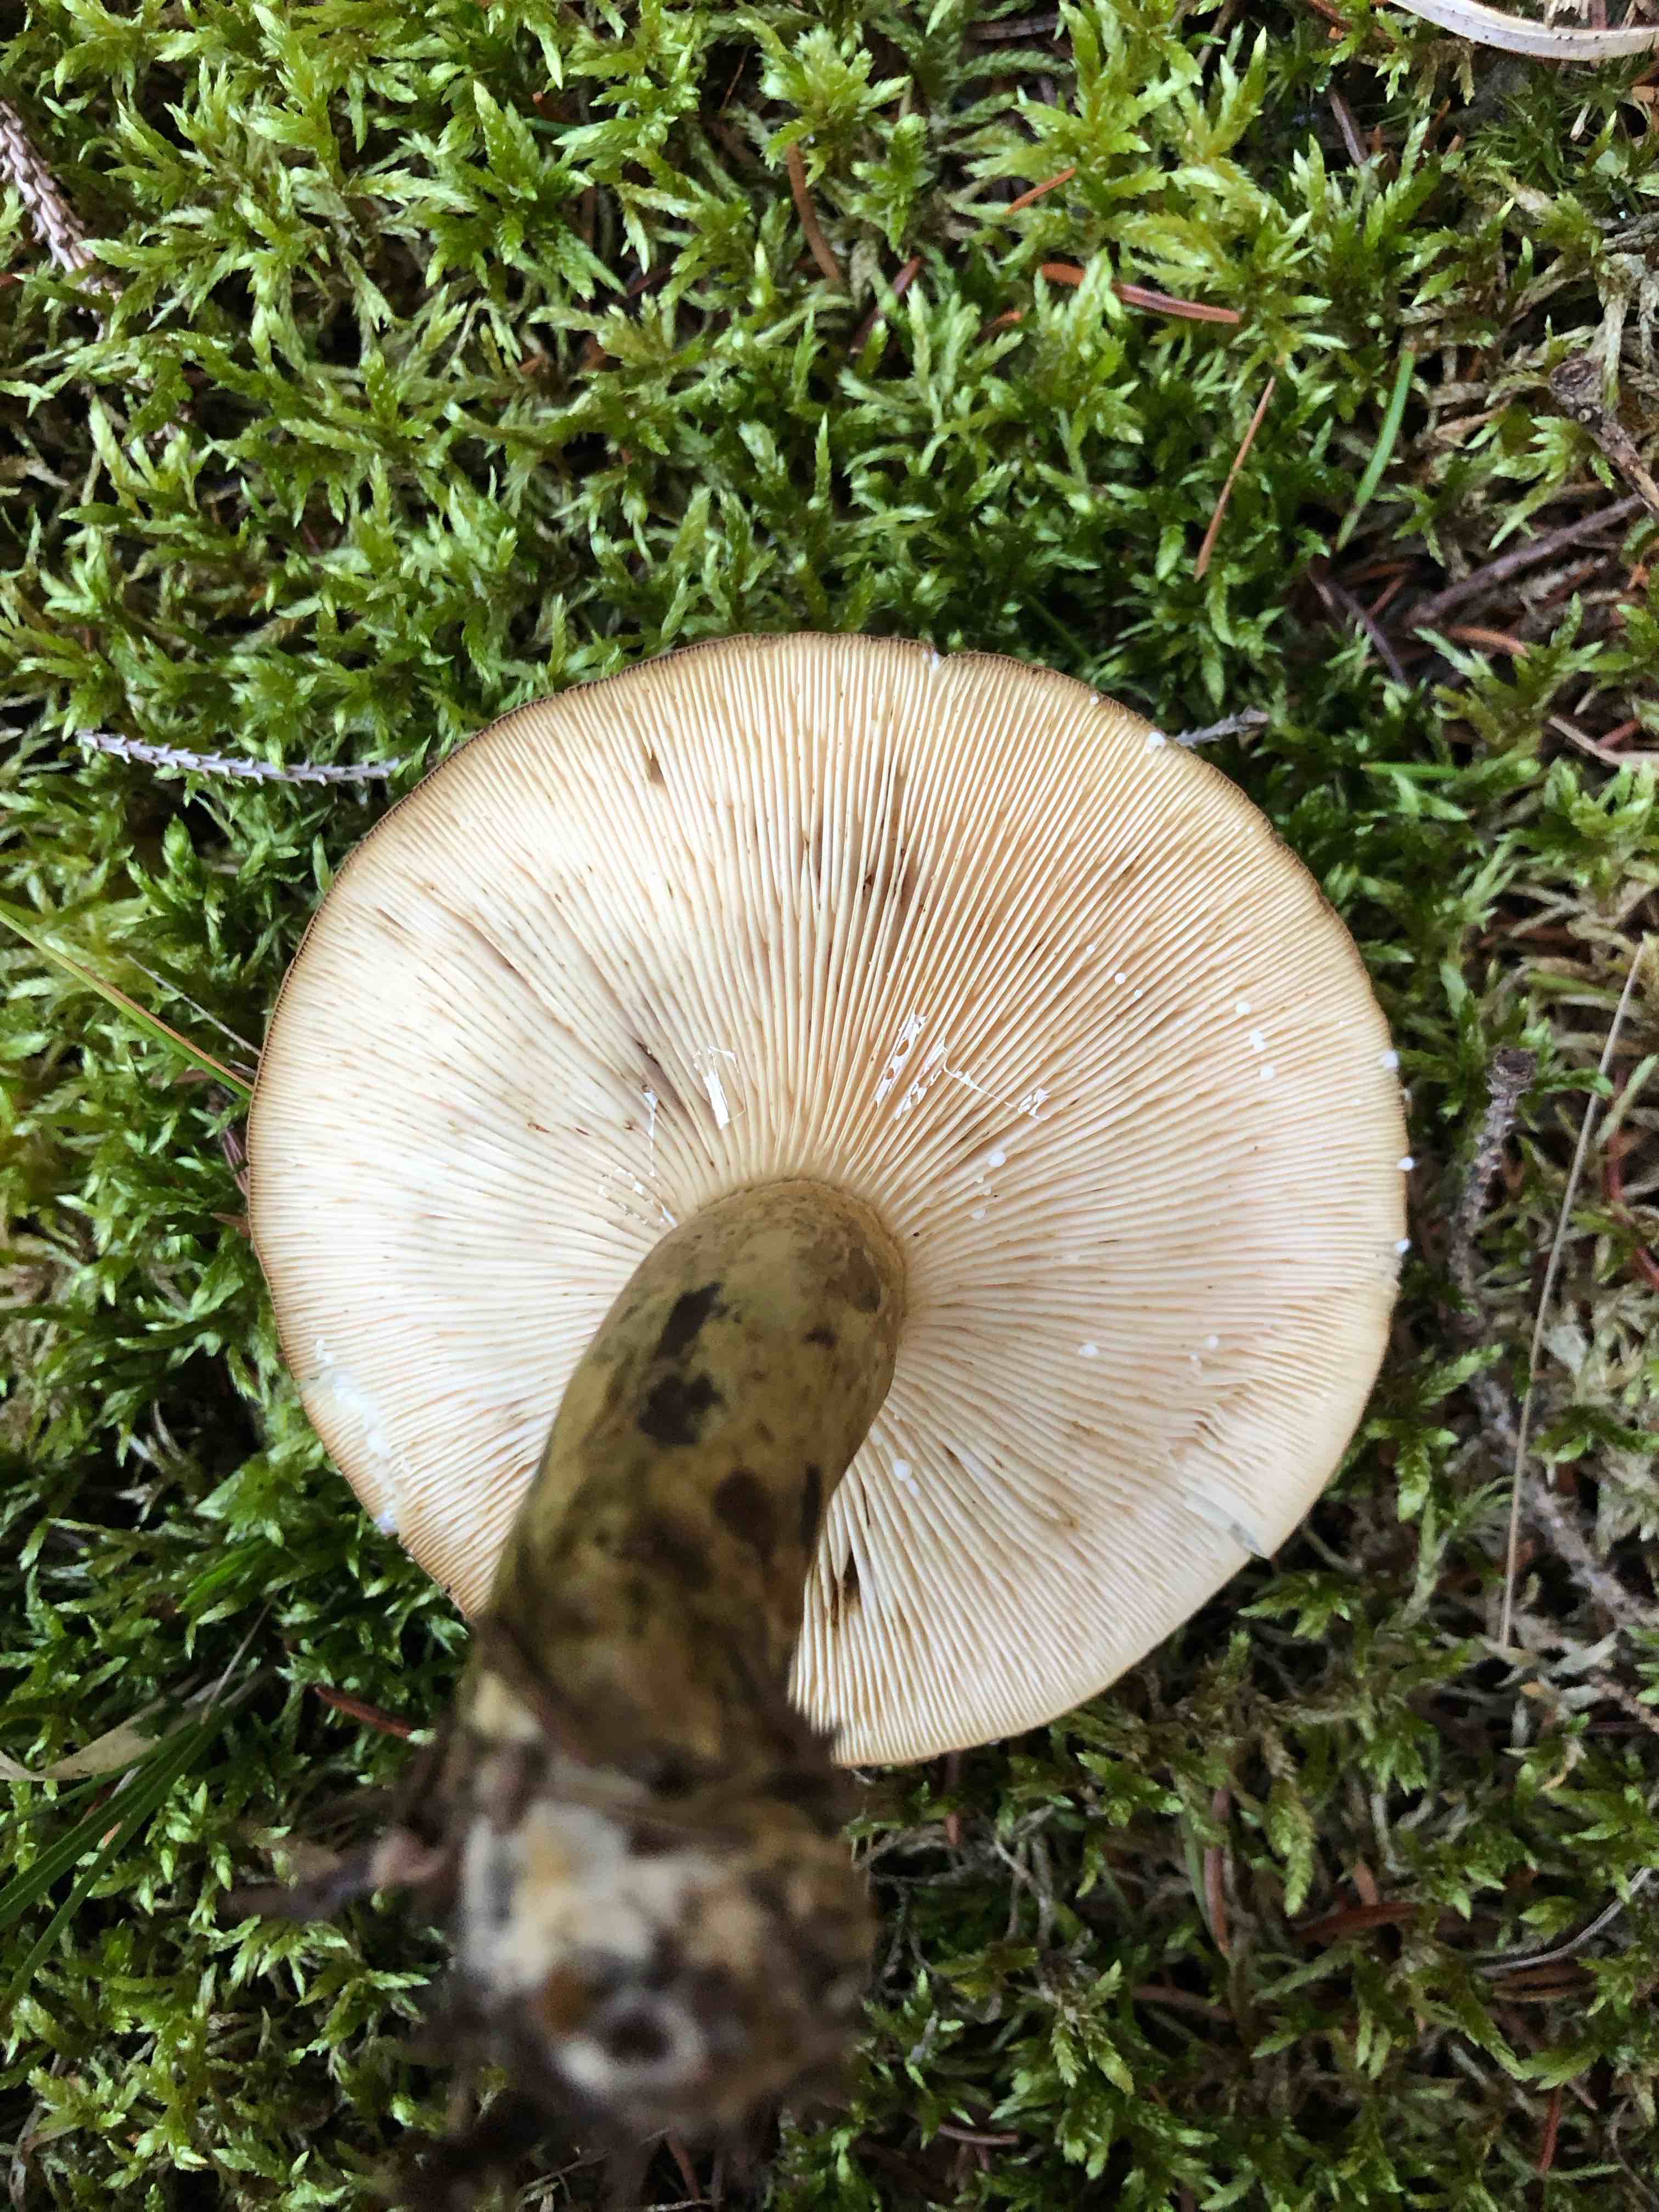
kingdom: Fungi
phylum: Basidiomycota
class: Agaricomycetes
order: Russulales
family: Russulaceae
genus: Lactarius
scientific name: Lactarius necator
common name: manddraber-mælkehat
